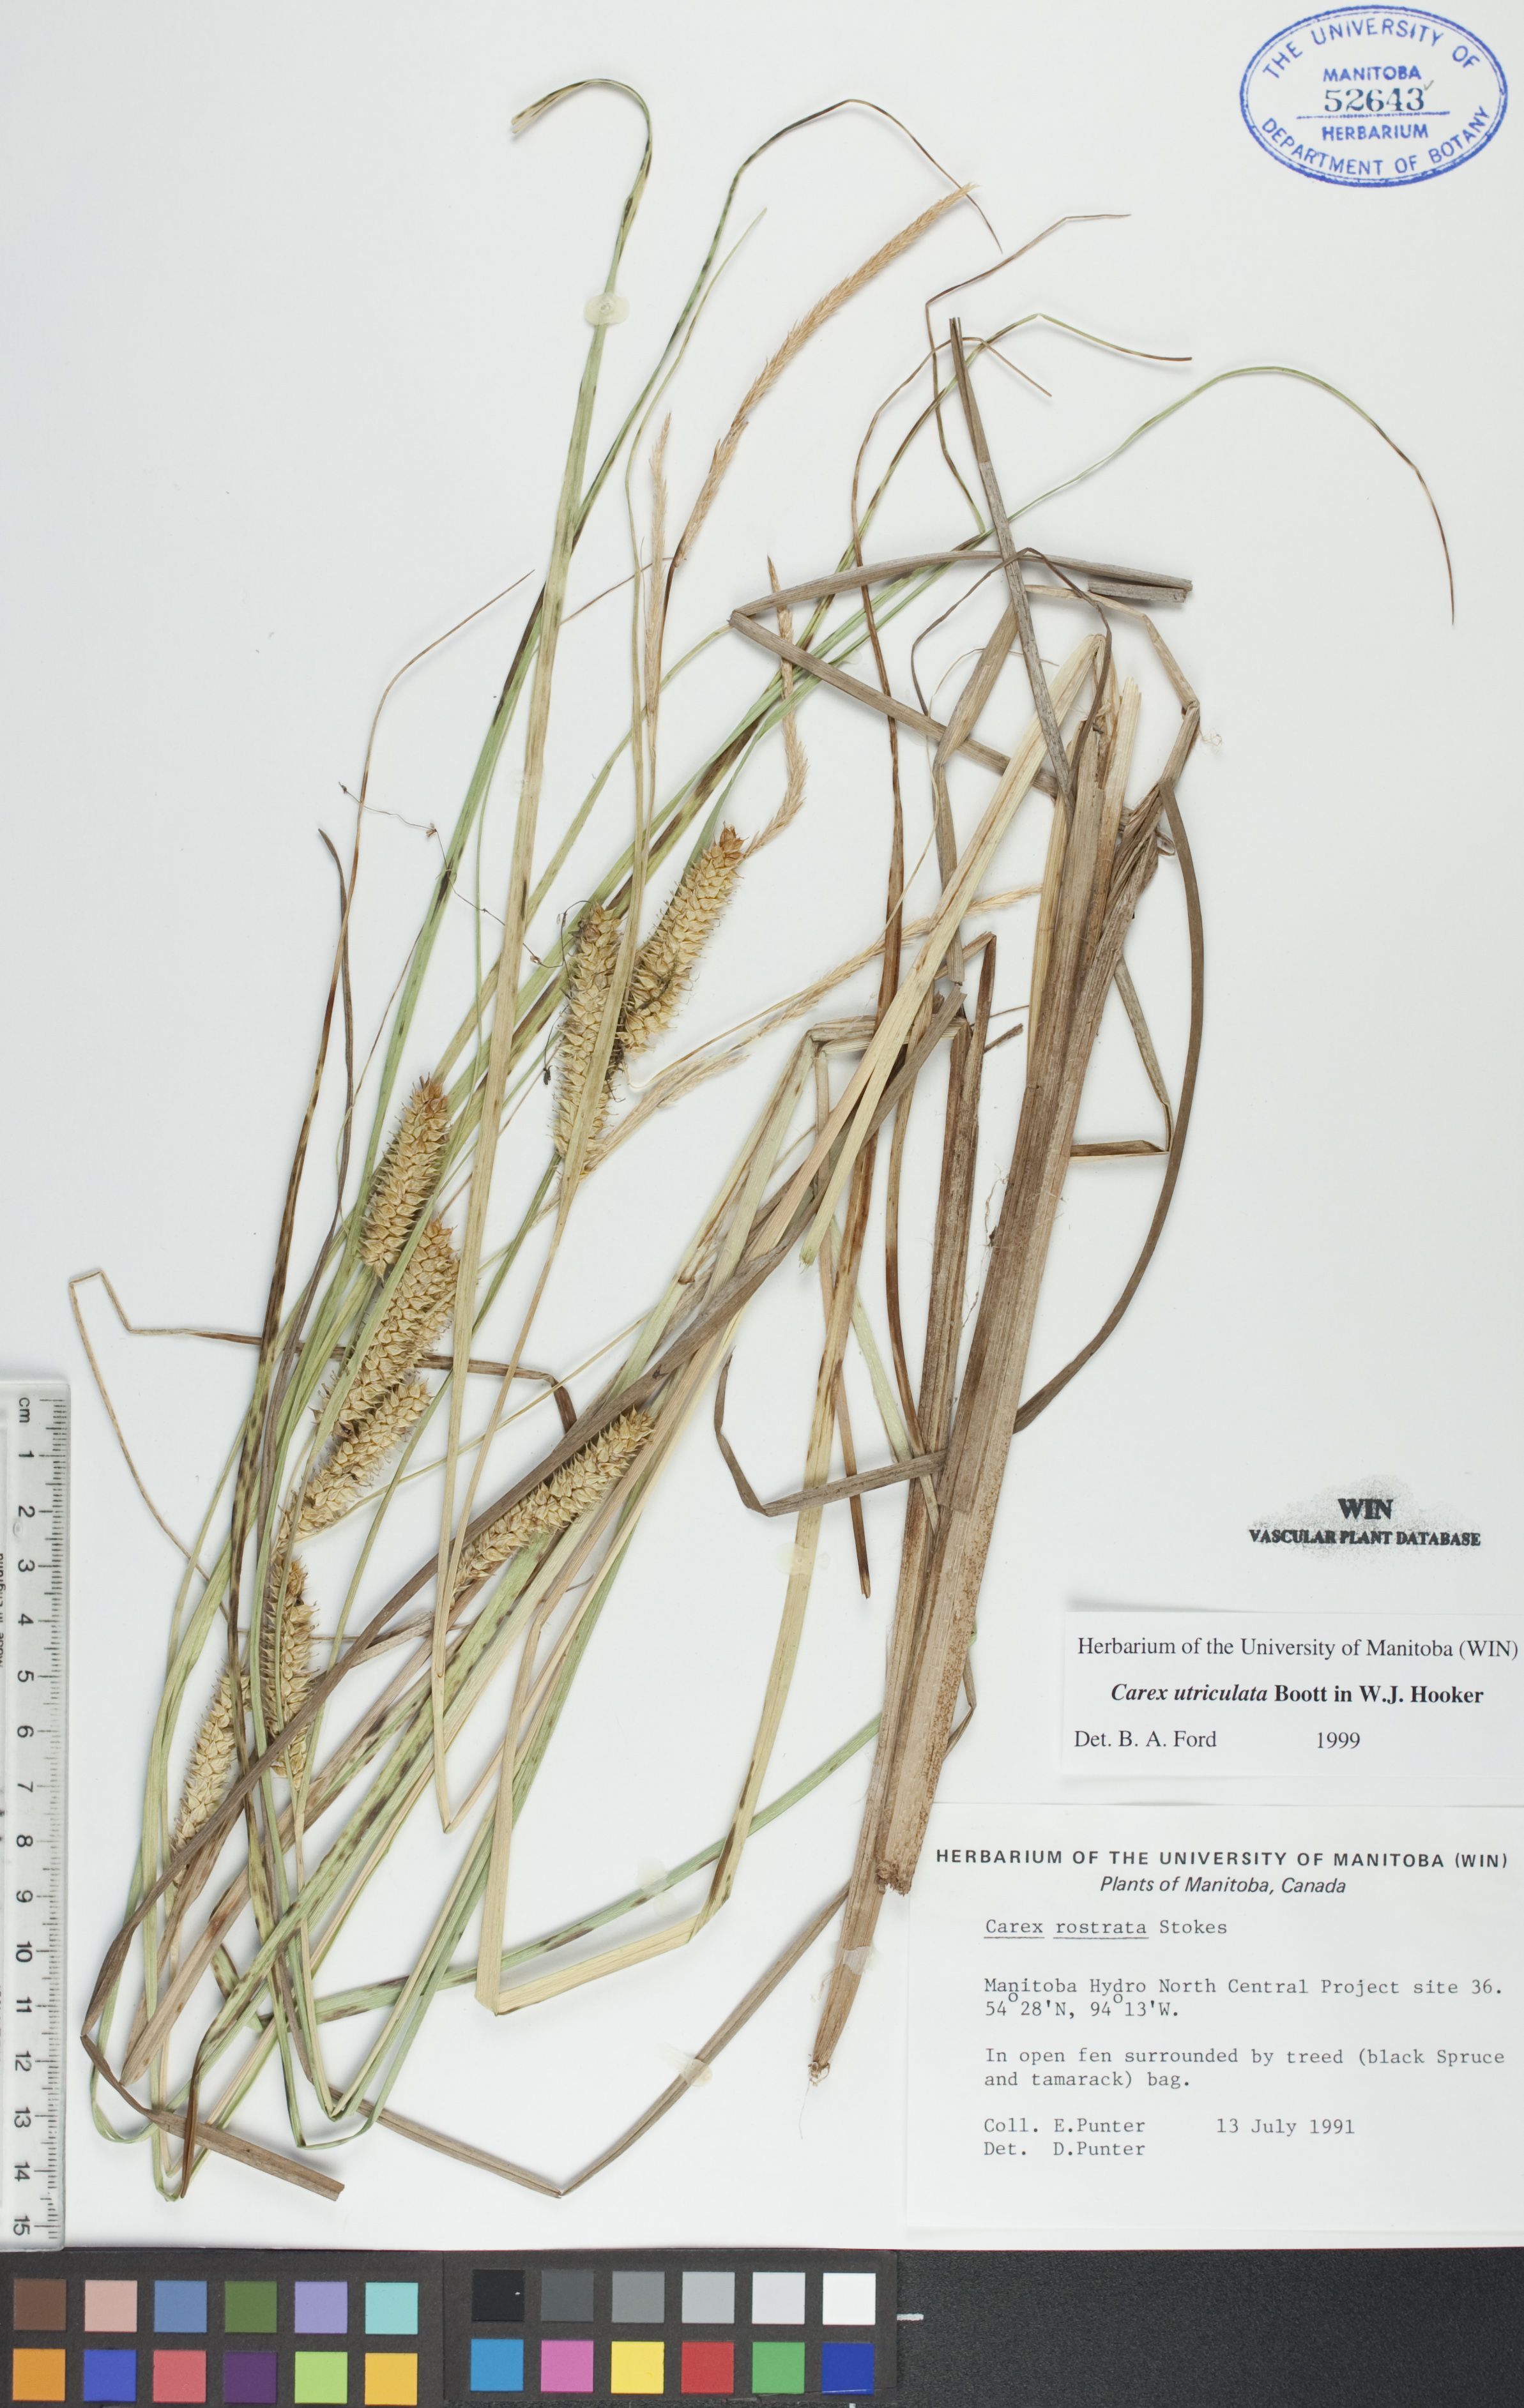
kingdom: Plantae
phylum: Tracheophyta
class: Liliopsida
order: Poales
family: Cyperaceae
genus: Carex
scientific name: Carex utriculata
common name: Beaked sedge
